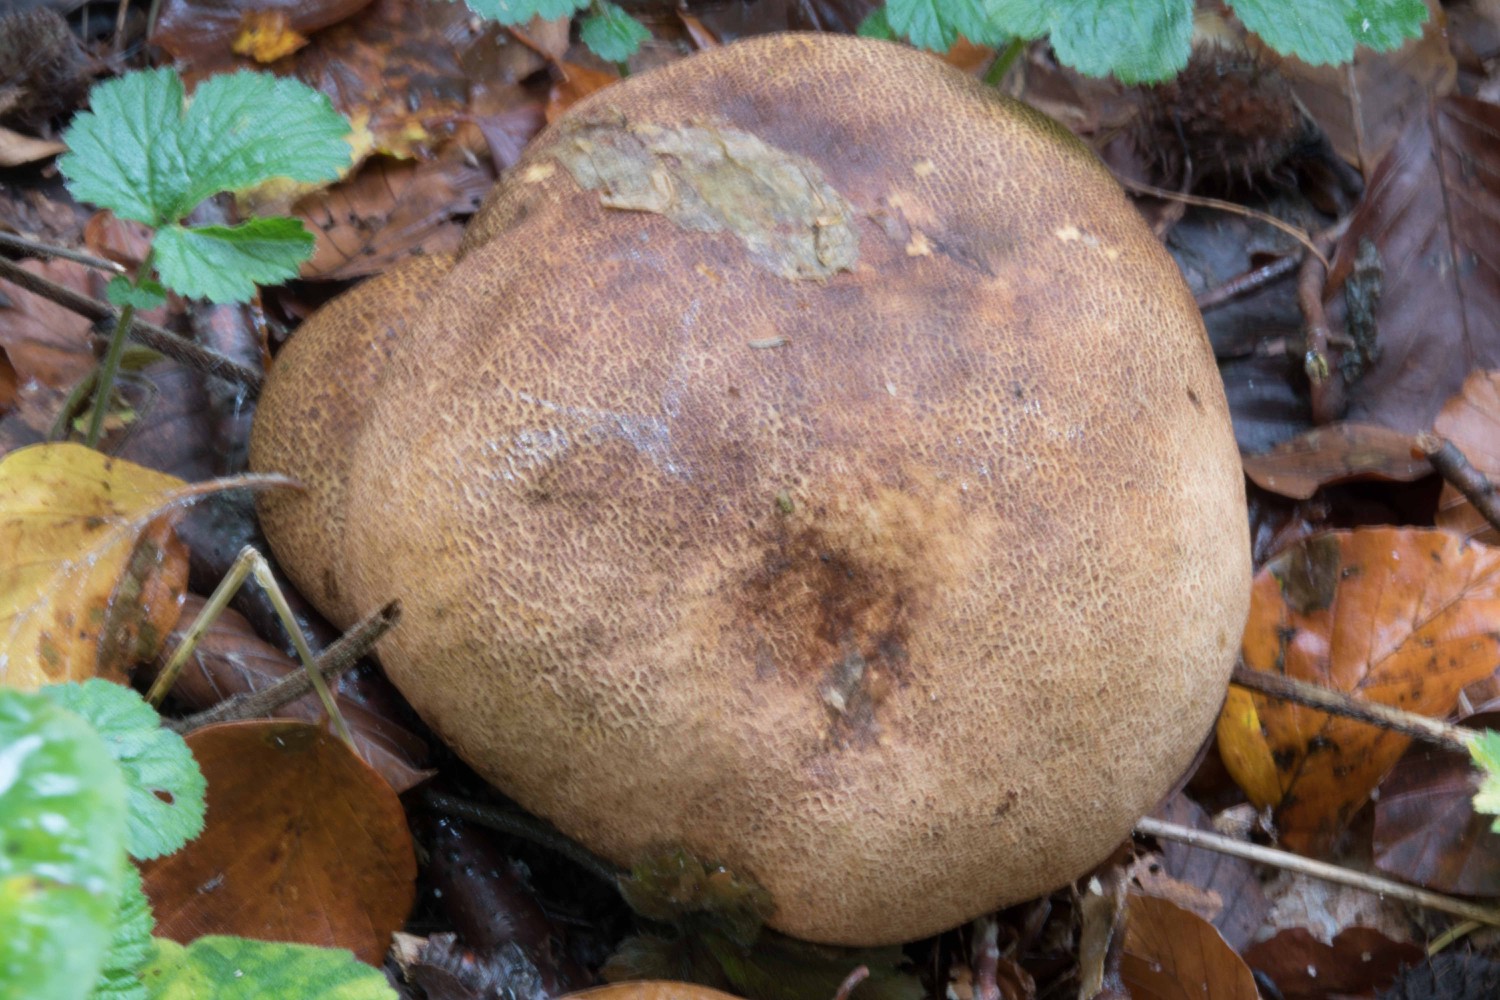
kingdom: Fungi
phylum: Basidiomycota
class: Agaricomycetes
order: Boletales
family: Sclerodermataceae
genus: Scleroderma
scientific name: Scleroderma areolatum
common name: plettet bruskbold
